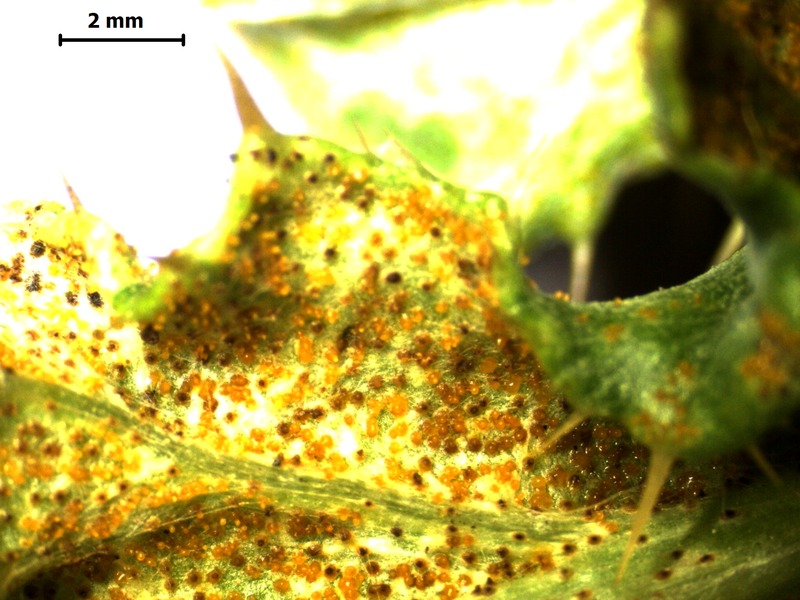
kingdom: Fungi
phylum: Basidiomycota
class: Pucciniomycetes
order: Pucciniales
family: Pucciniaceae
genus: Puccinia
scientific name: Puccinia cnici
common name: Rust fungus
